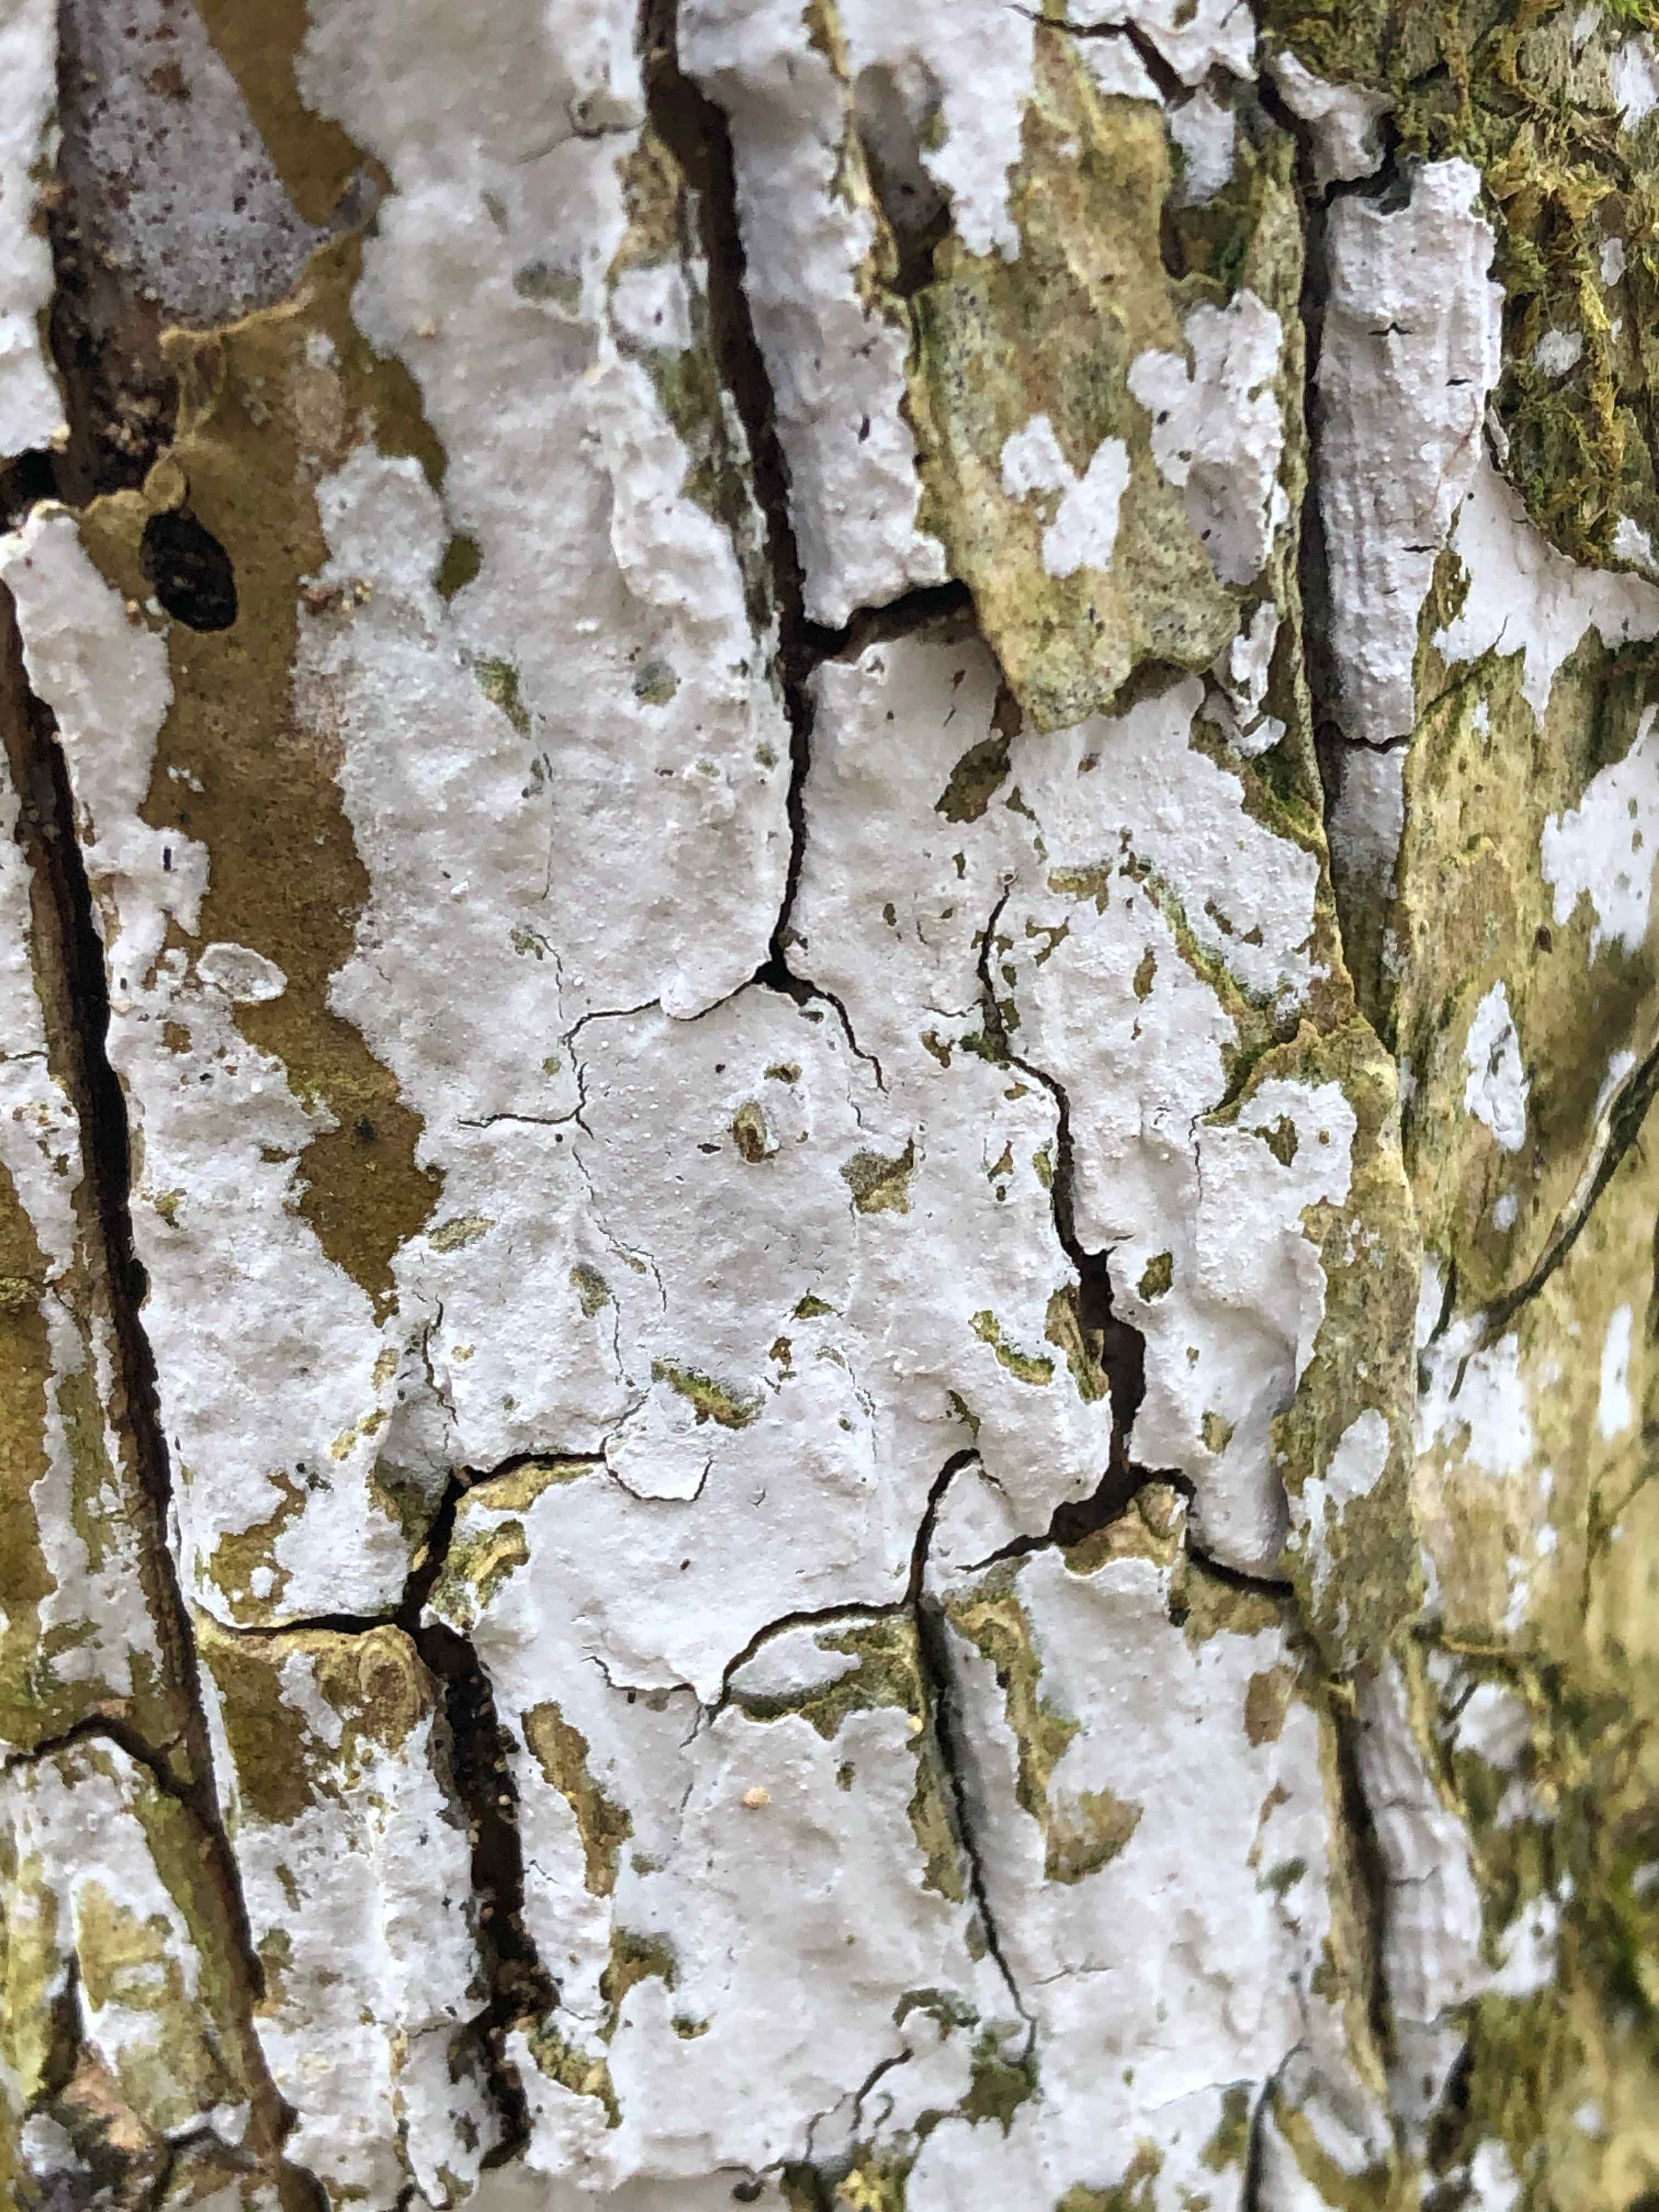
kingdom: Fungi
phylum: Basidiomycota
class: Agaricomycetes
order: Corticiales
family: Corticiaceae
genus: Lyomyces
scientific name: Lyomyces sambuci
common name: almindelig hyldehinde
